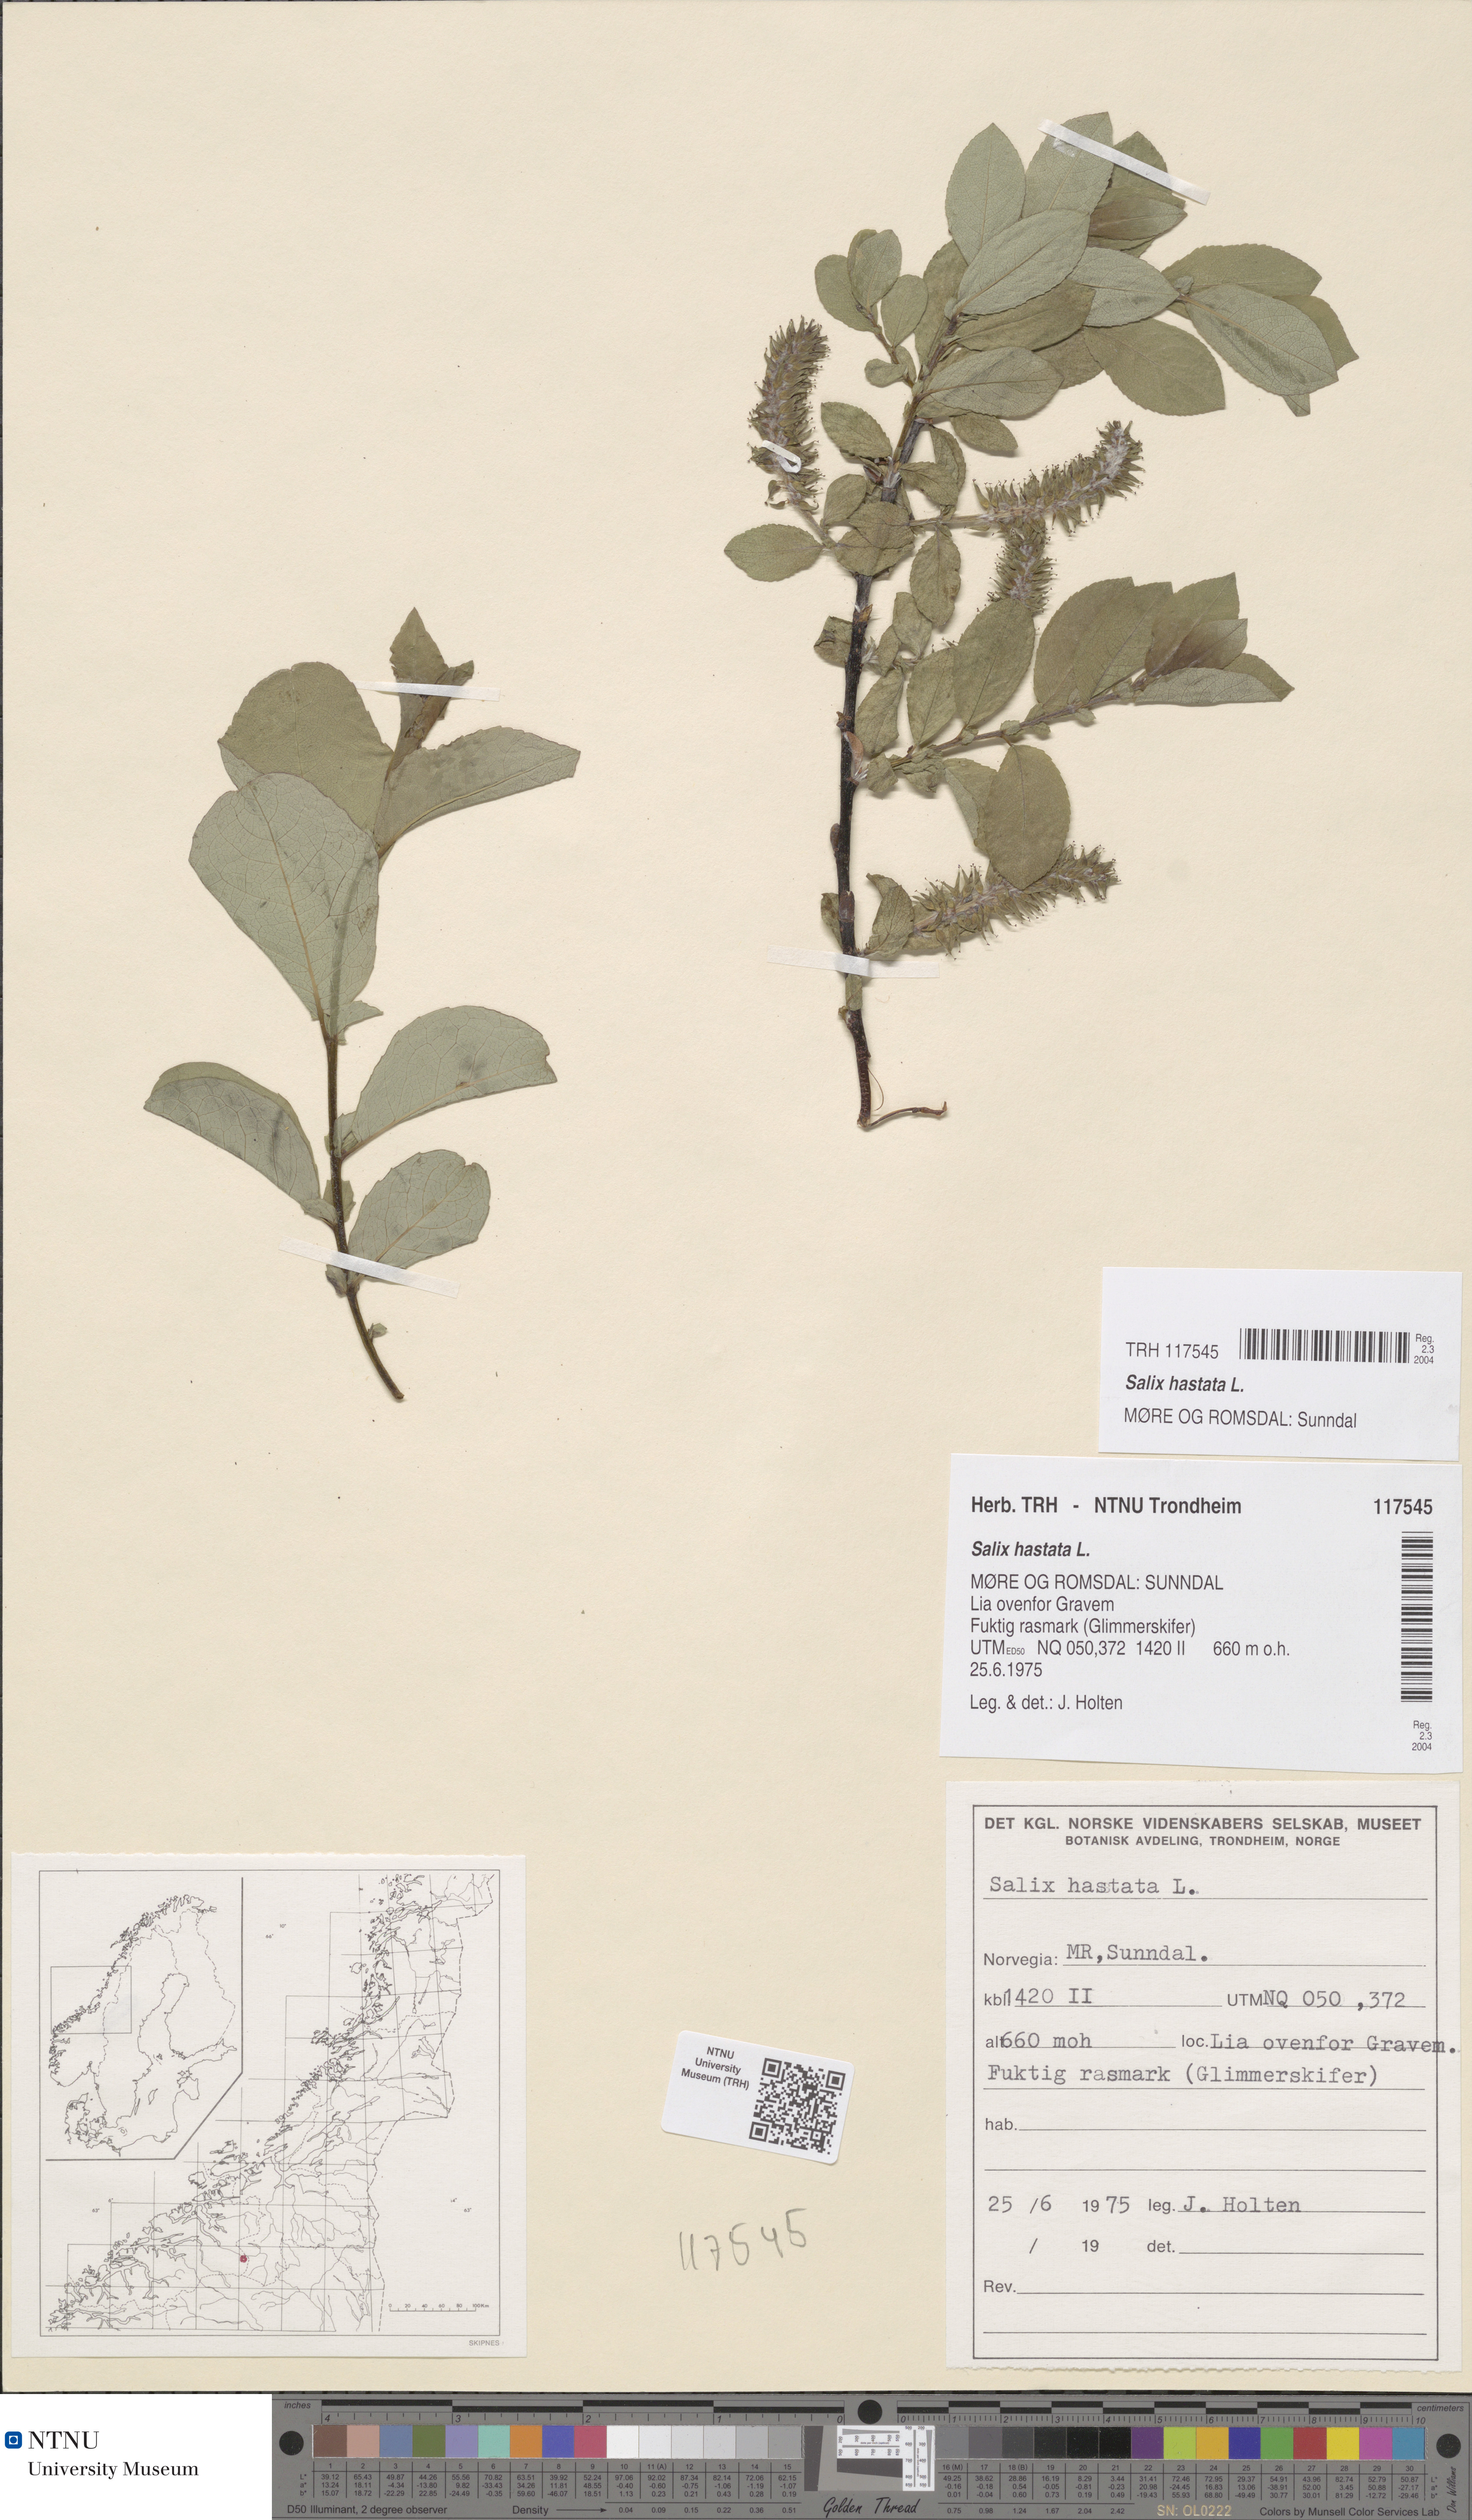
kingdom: Plantae
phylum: Tracheophyta
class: Magnoliopsida
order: Malpighiales
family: Salicaceae
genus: Salix
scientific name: Salix hastata
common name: Halberd willow
